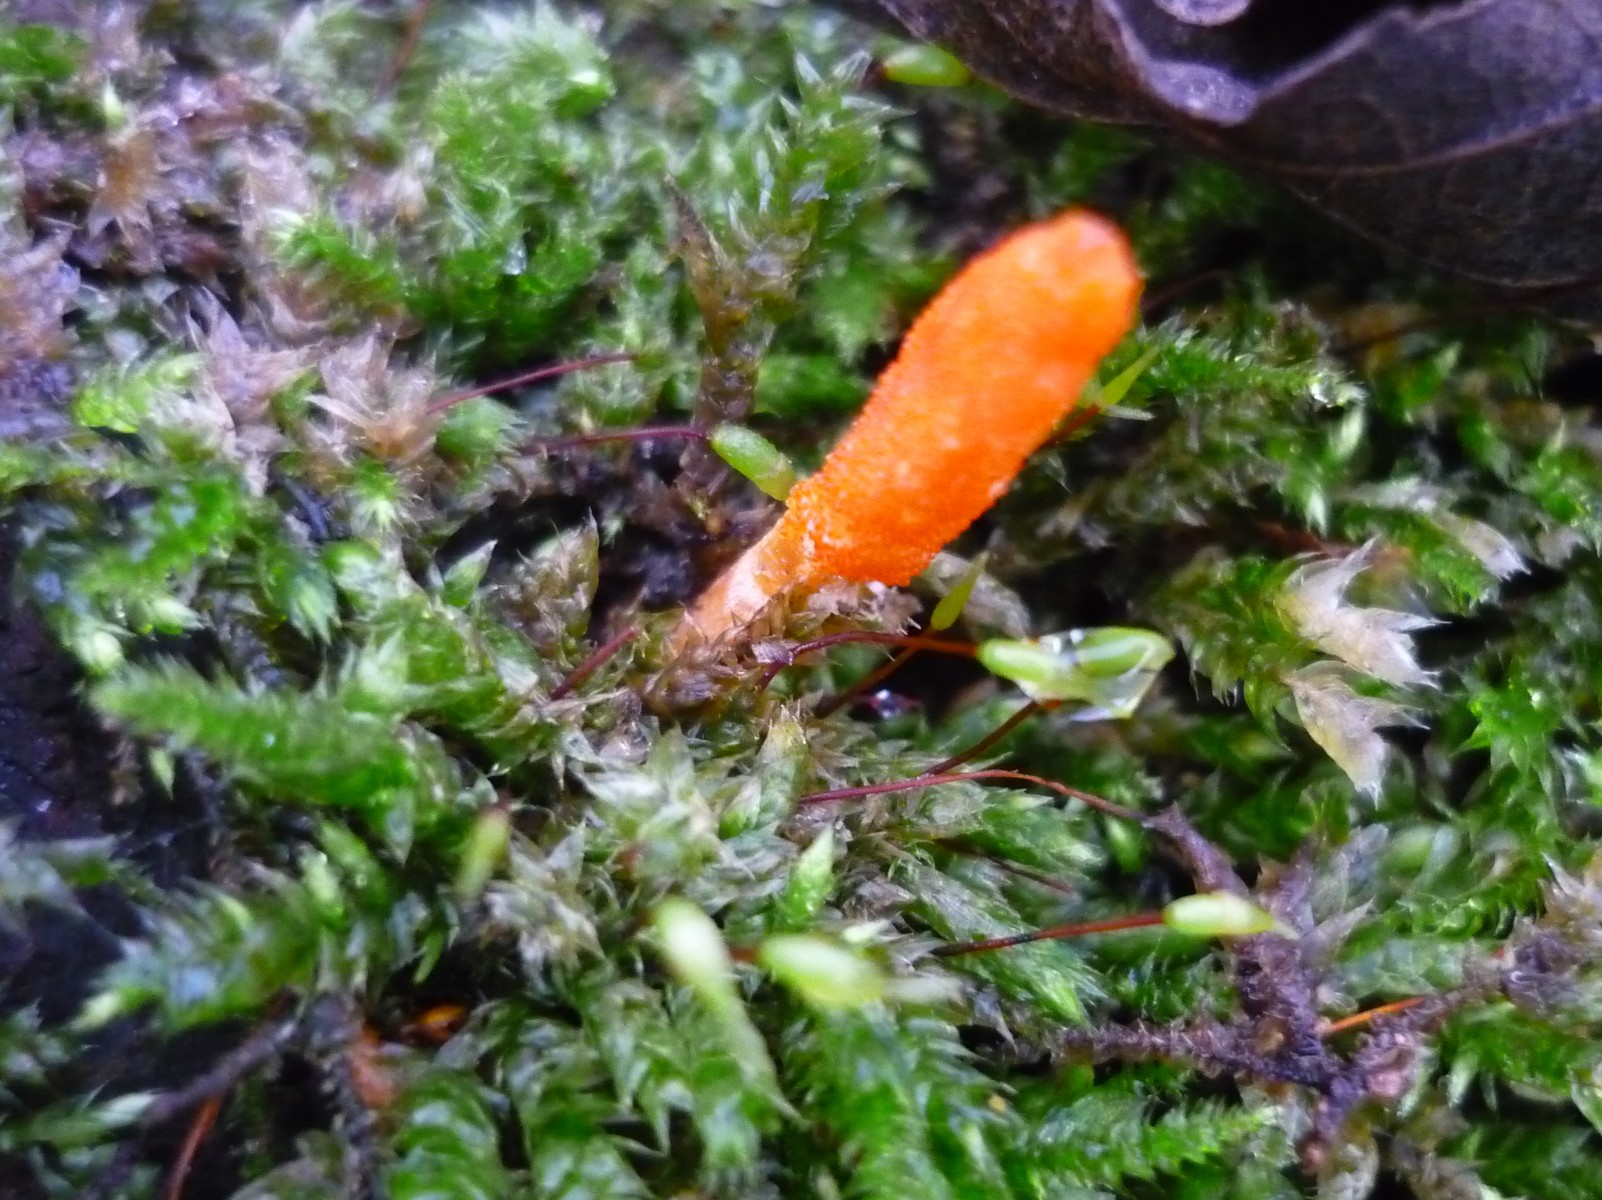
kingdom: Fungi
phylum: Ascomycota
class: Sordariomycetes
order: Hypocreales
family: Cordycipitaceae
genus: Cordyceps
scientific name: Cordyceps militaris
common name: puppe-snyltekølle
